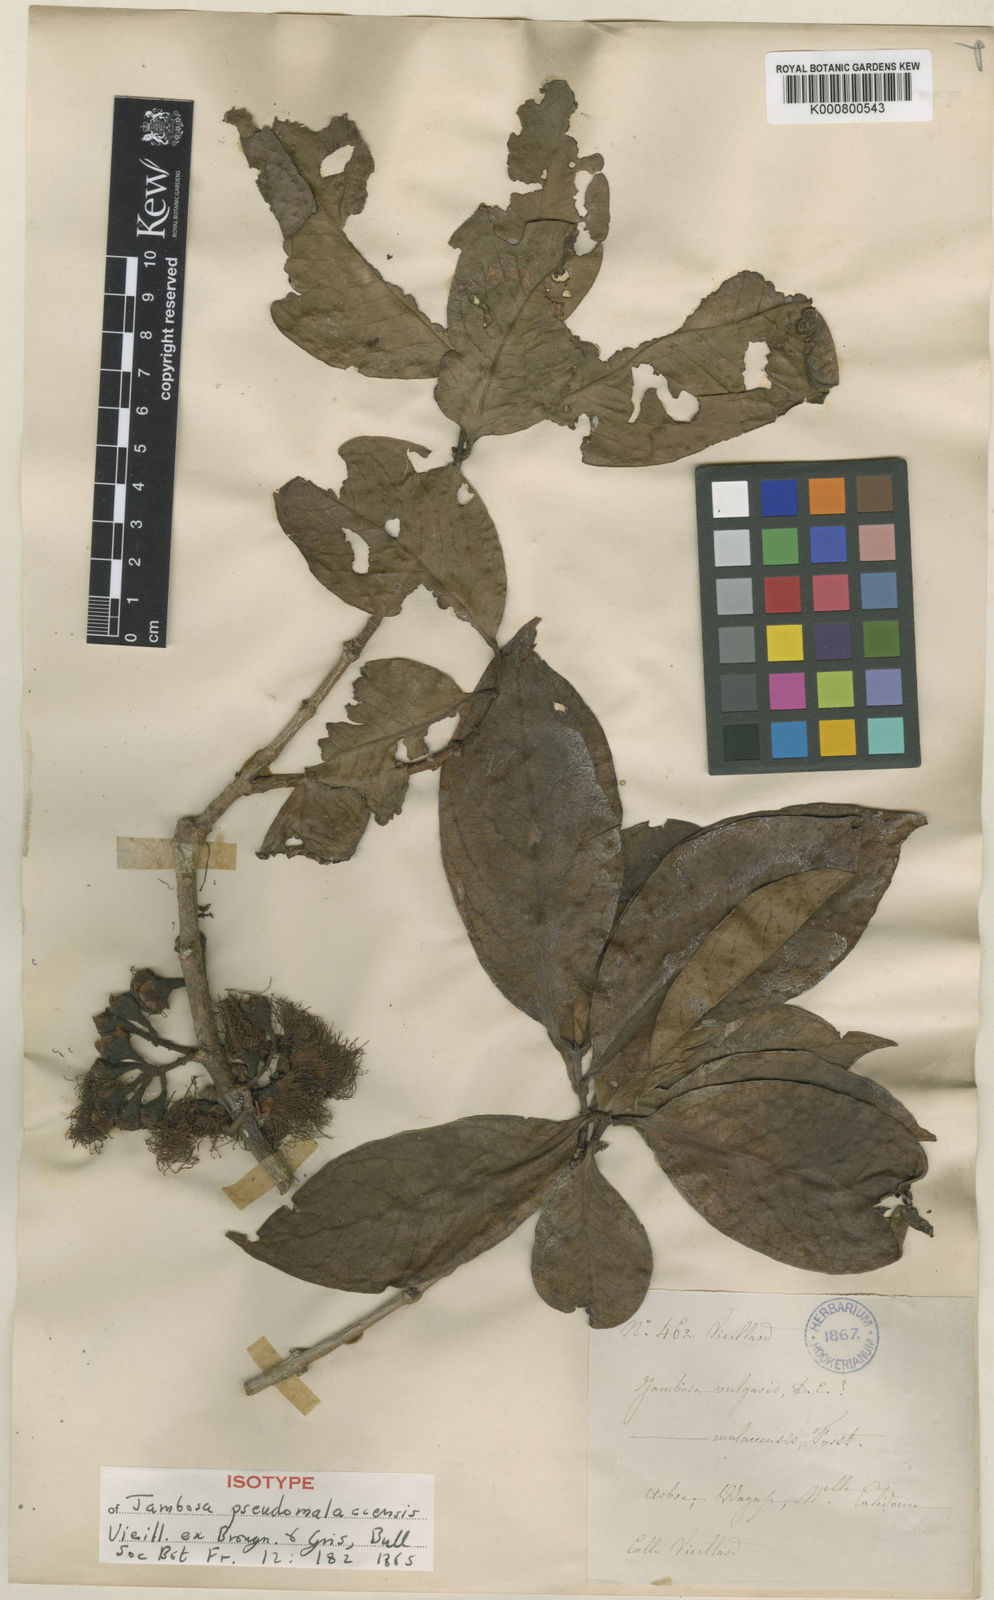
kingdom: Plantae
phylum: Tracheophyta
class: Magnoliopsida
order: Myrtales
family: Myrtaceae
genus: Syzygium
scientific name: Syzygium pseudomalaccense
